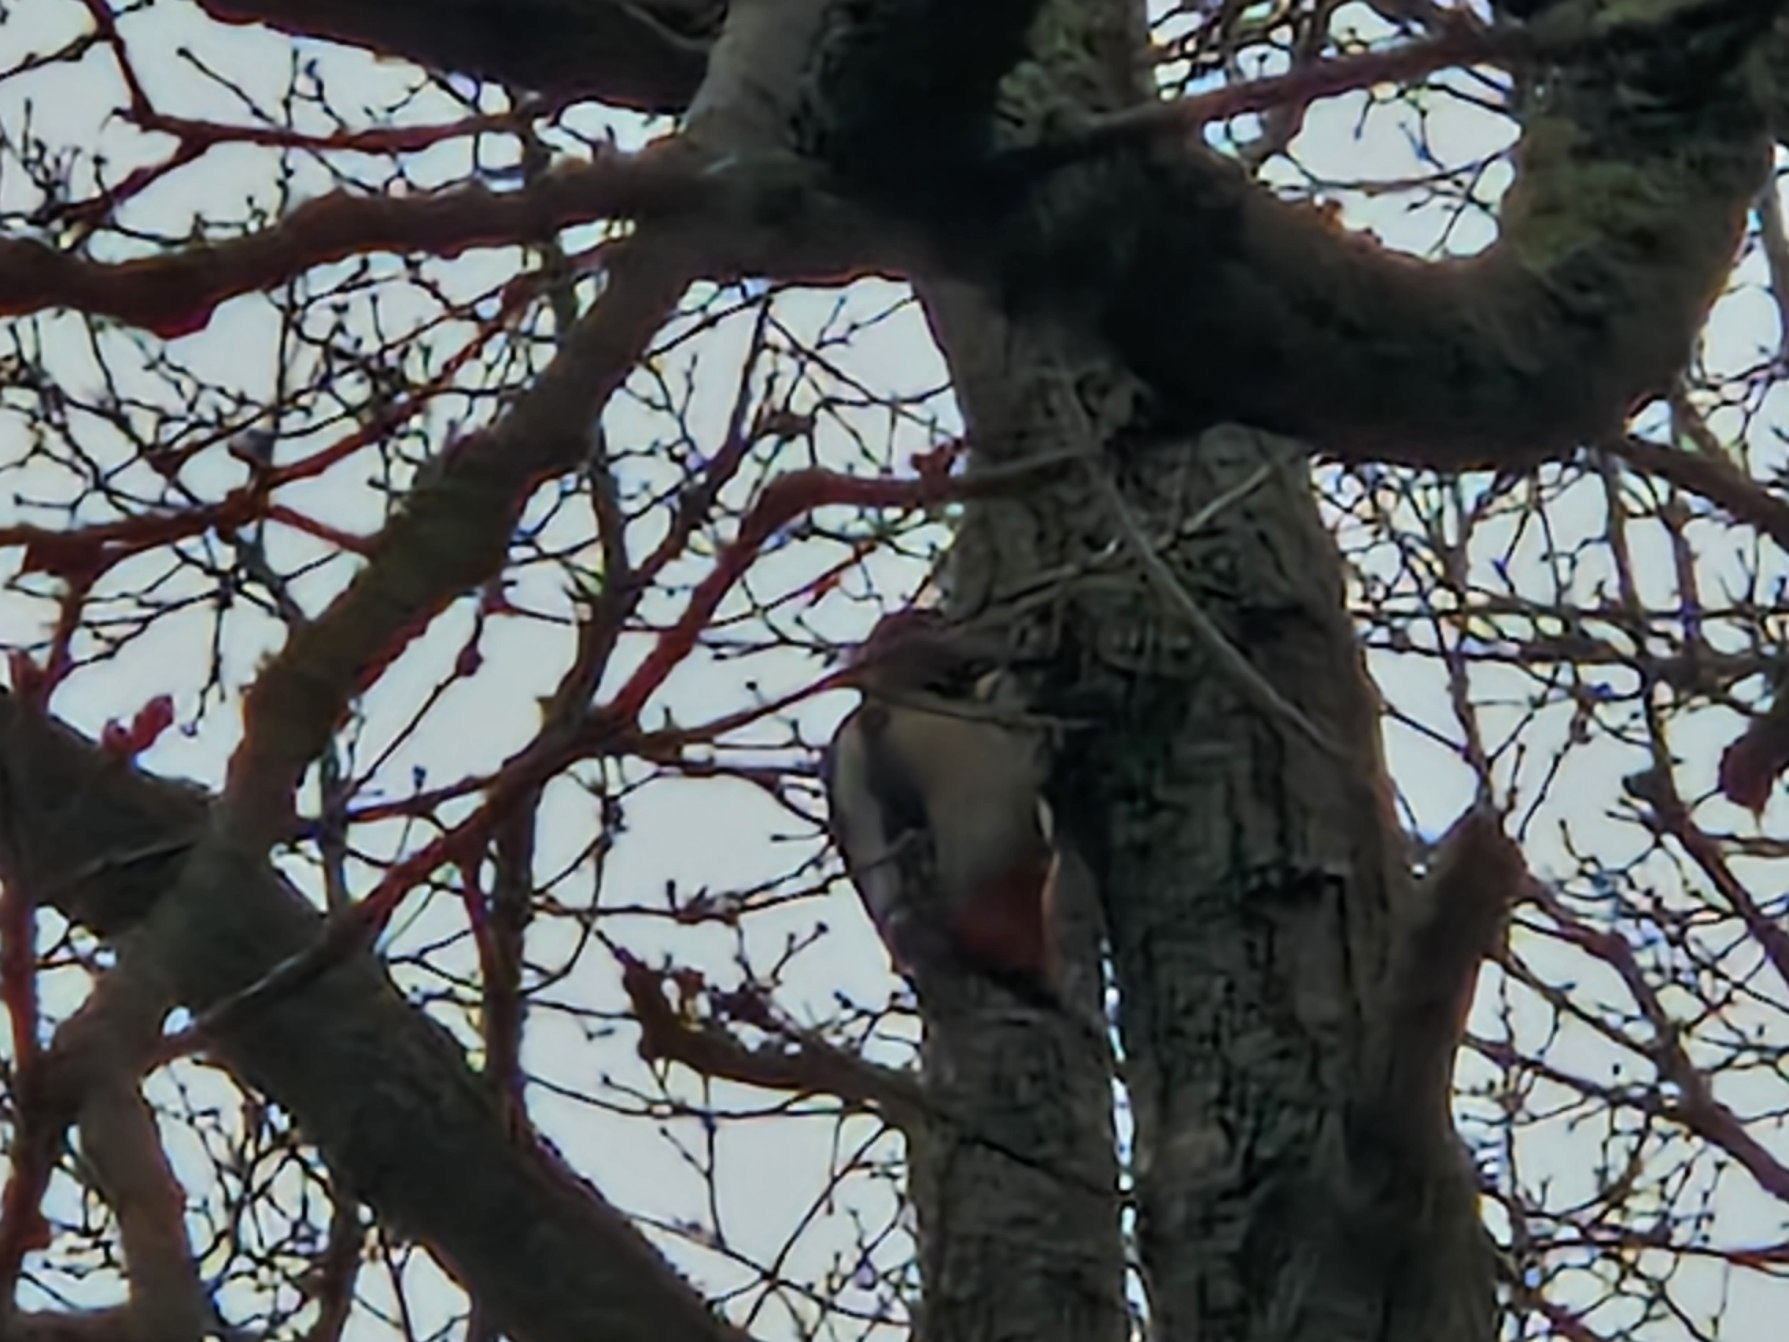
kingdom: Animalia
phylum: Chordata
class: Aves
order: Piciformes
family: Picidae
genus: Dendrocopos
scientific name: Dendrocopos major
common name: Stor flagspætte
